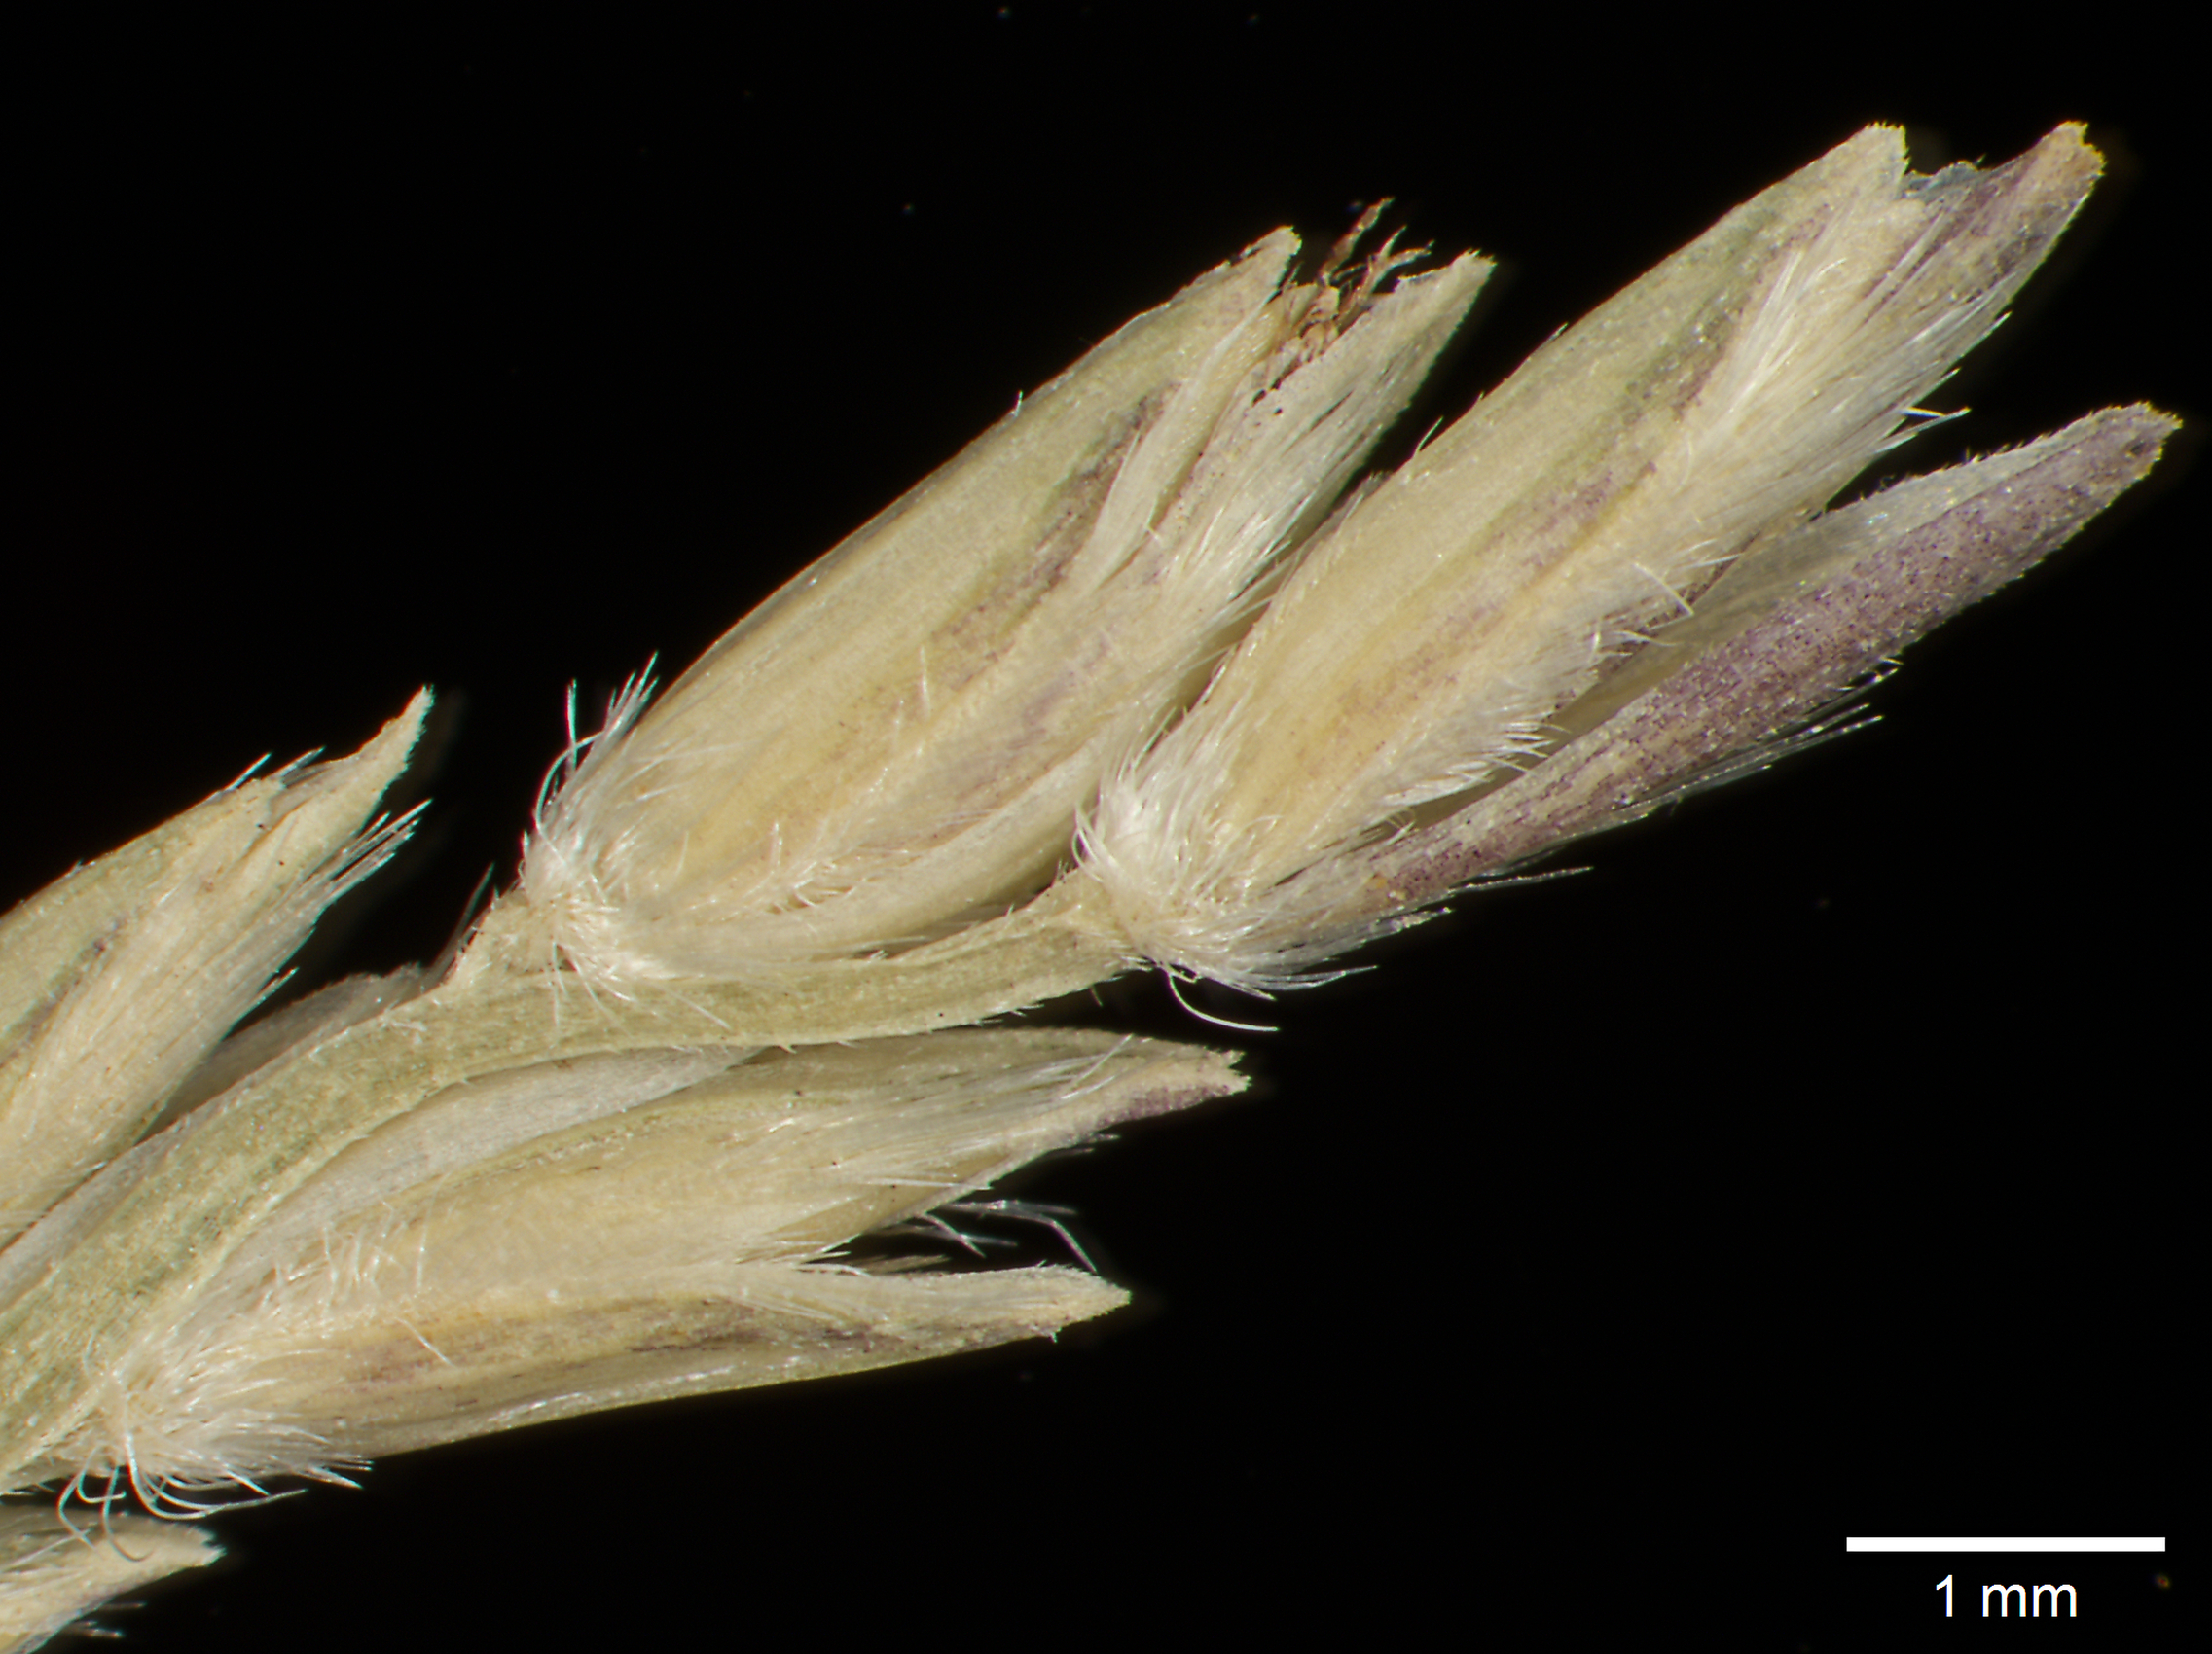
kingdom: Plantae
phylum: Tracheophyta
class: Liliopsida
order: Poales
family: Poaceae
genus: Mesosetum
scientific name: Mesosetum wrightii
